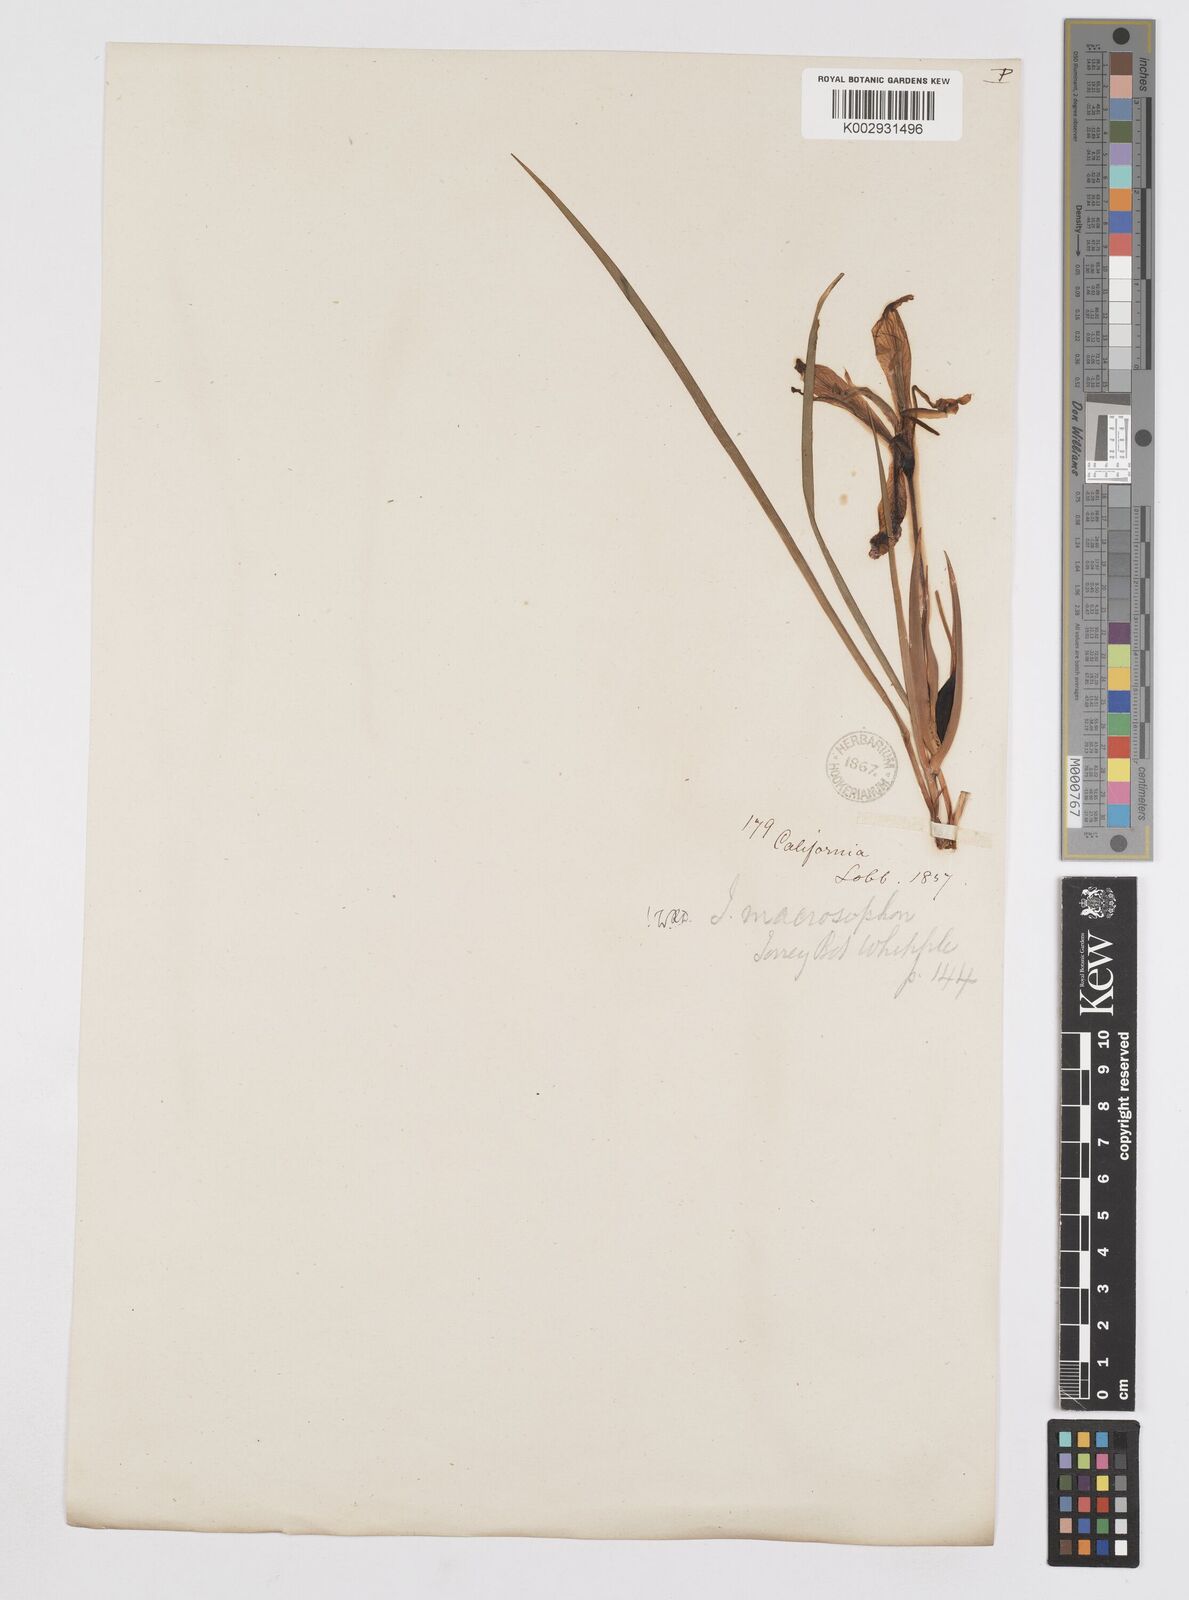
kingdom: Plantae
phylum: Tracheophyta
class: Liliopsida
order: Asparagales
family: Iridaceae
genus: Iris
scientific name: Iris macrosiphon
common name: Ground iris
